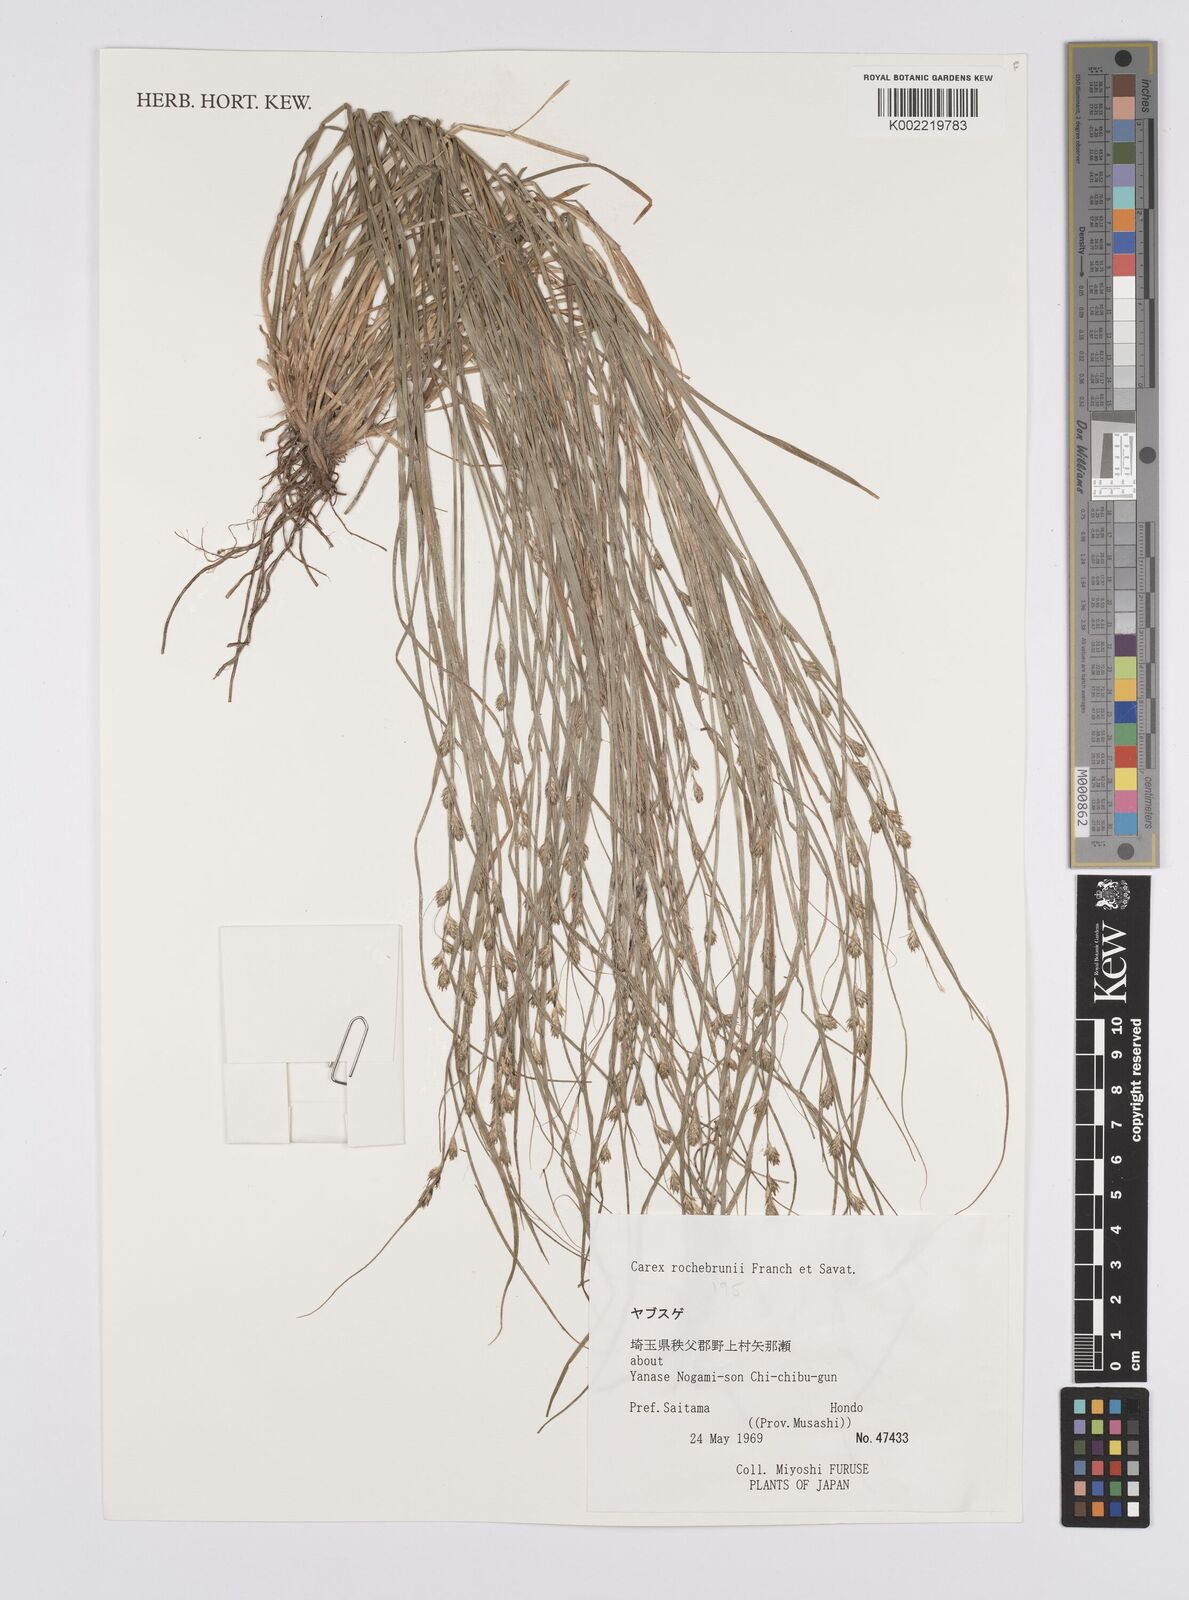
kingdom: Plantae
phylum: Tracheophyta
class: Liliopsida
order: Poales
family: Cyperaceae
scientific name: Cyperaceae
